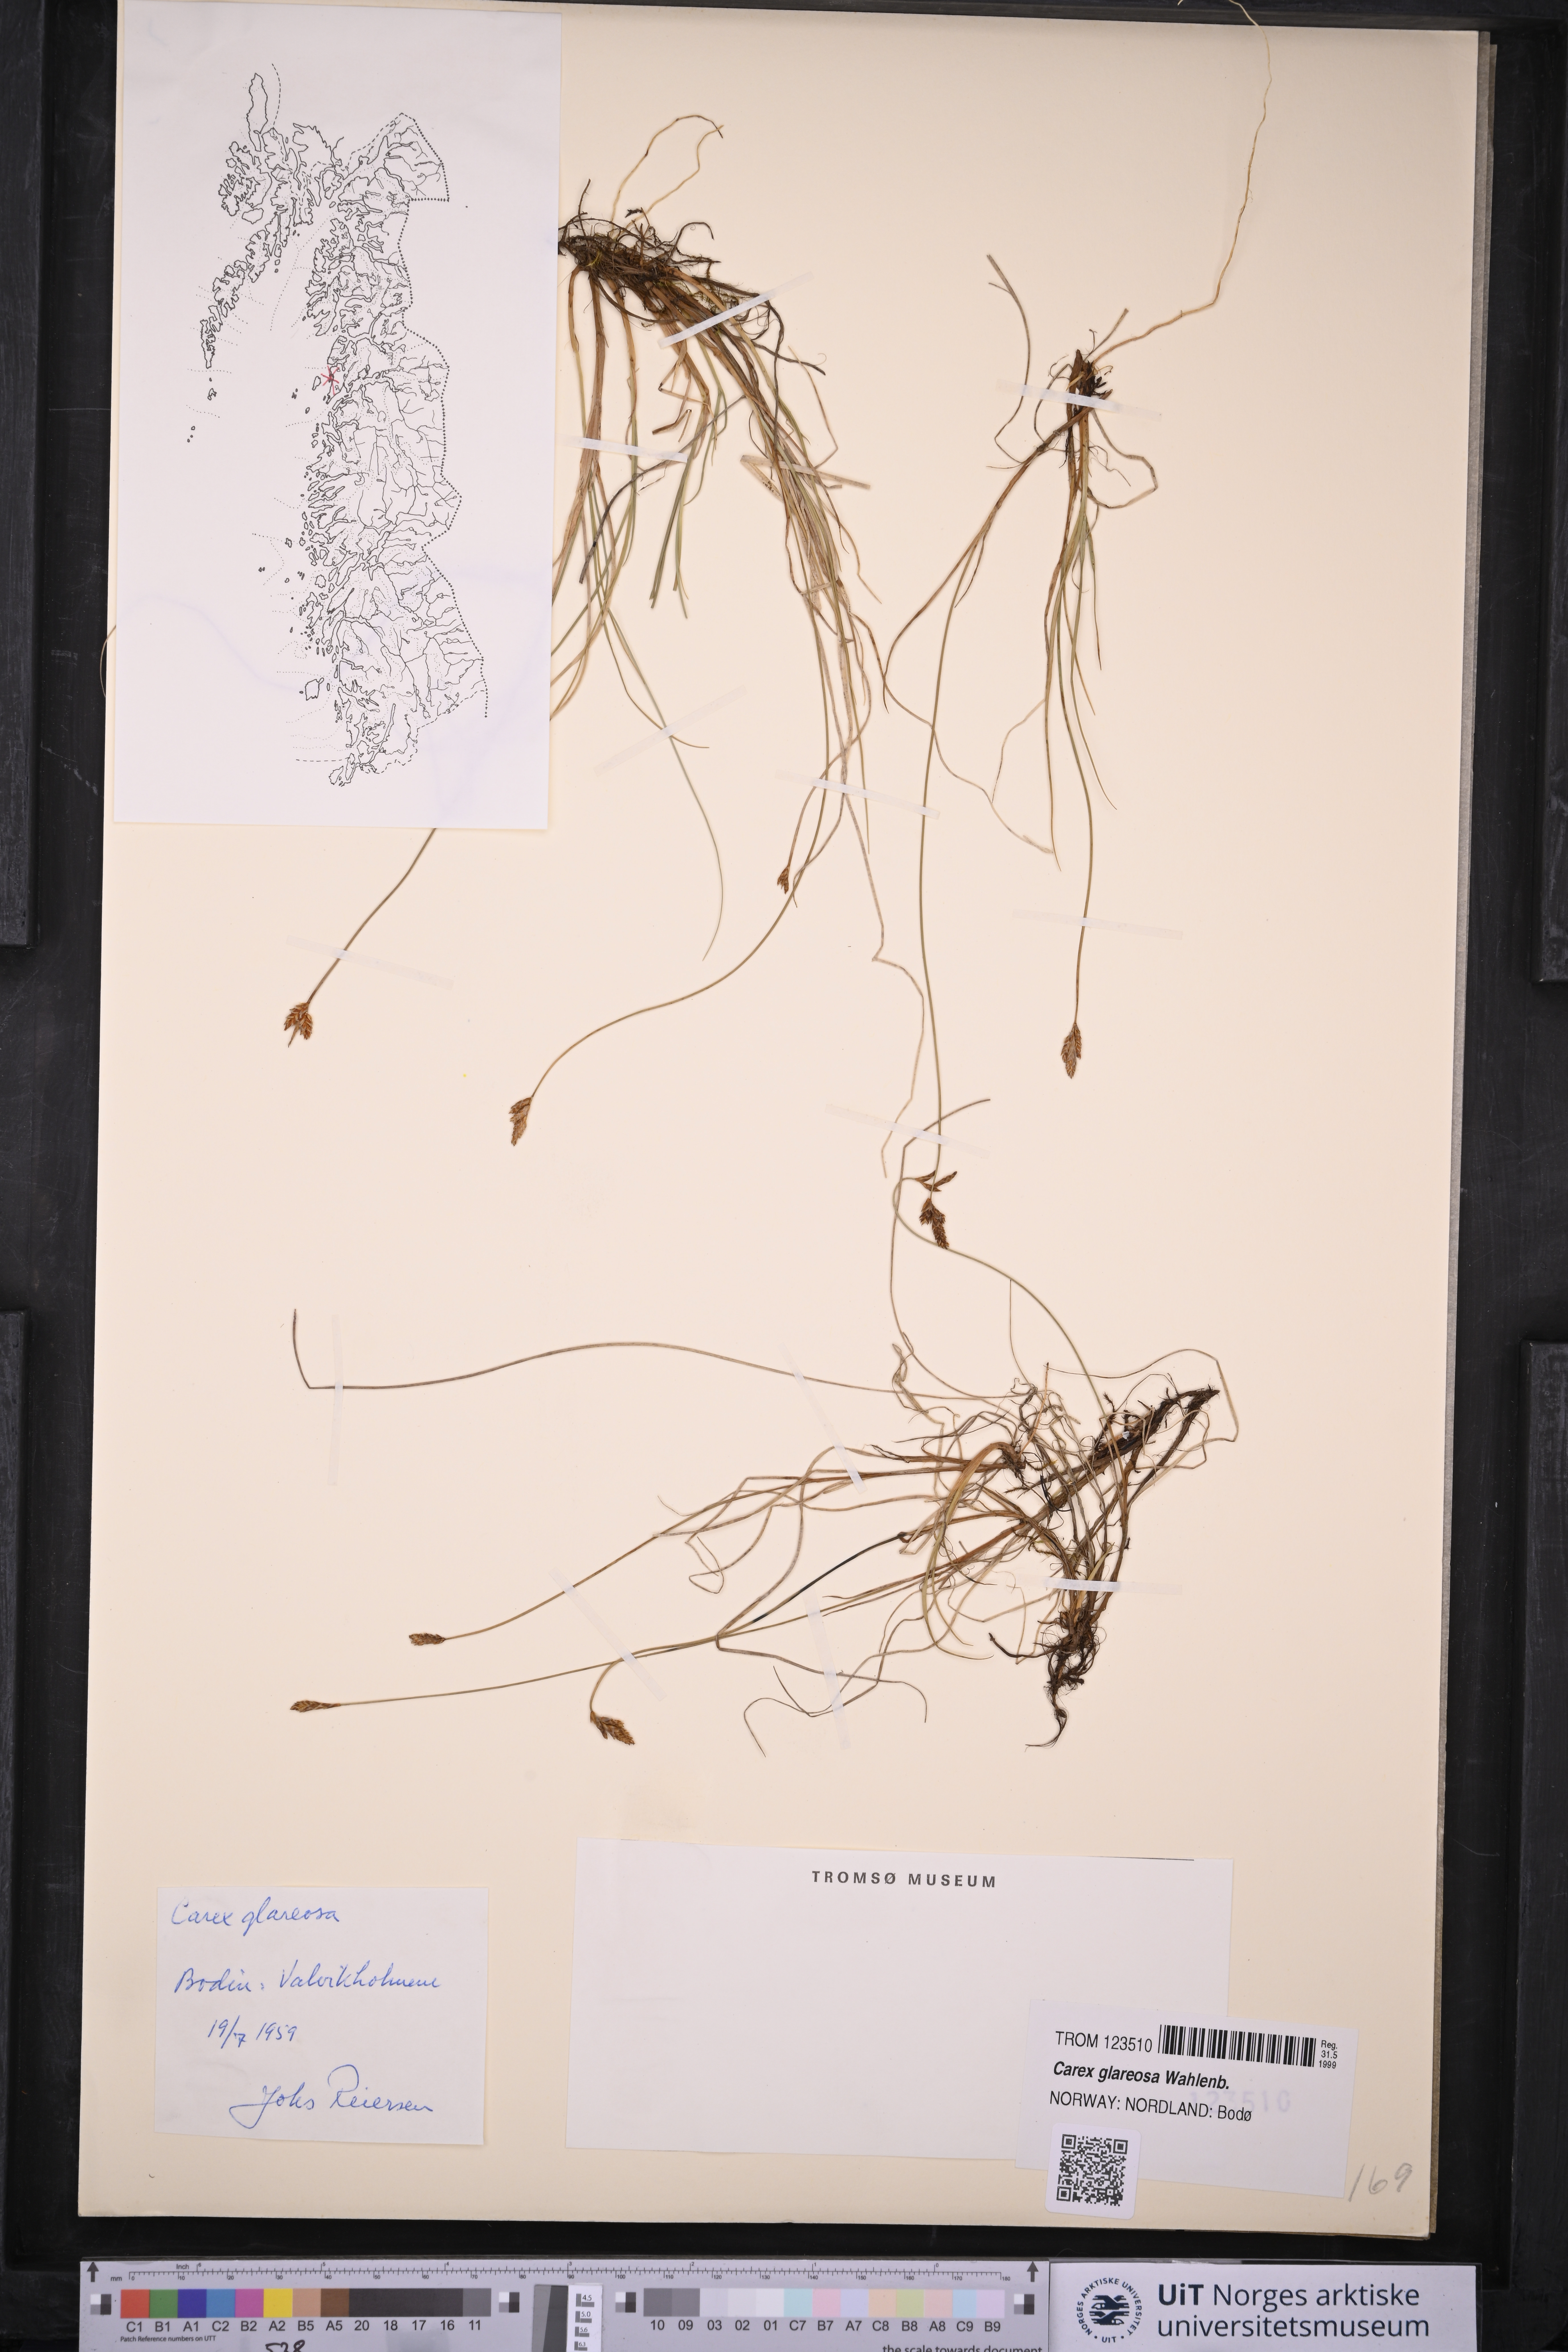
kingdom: Plantae
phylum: Tracheophyta
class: Liliopsida
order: Poales
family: Cyperaceae
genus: Carex
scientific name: Carex glareosa
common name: Clustered sedge
